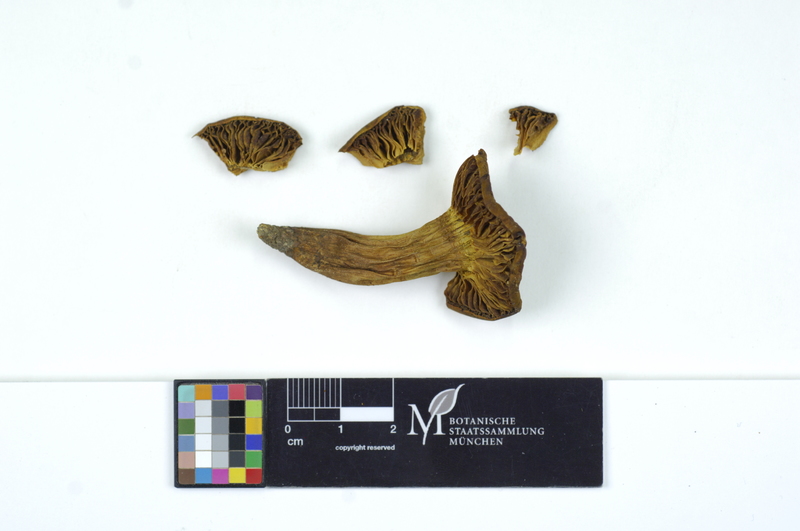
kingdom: Fungi
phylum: Basidiomycota
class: Agaricomycetes
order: Boletales
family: Boletaceae
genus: Phylloporus
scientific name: Phylloporus rhodoxanthus
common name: Golden gilled bolete
